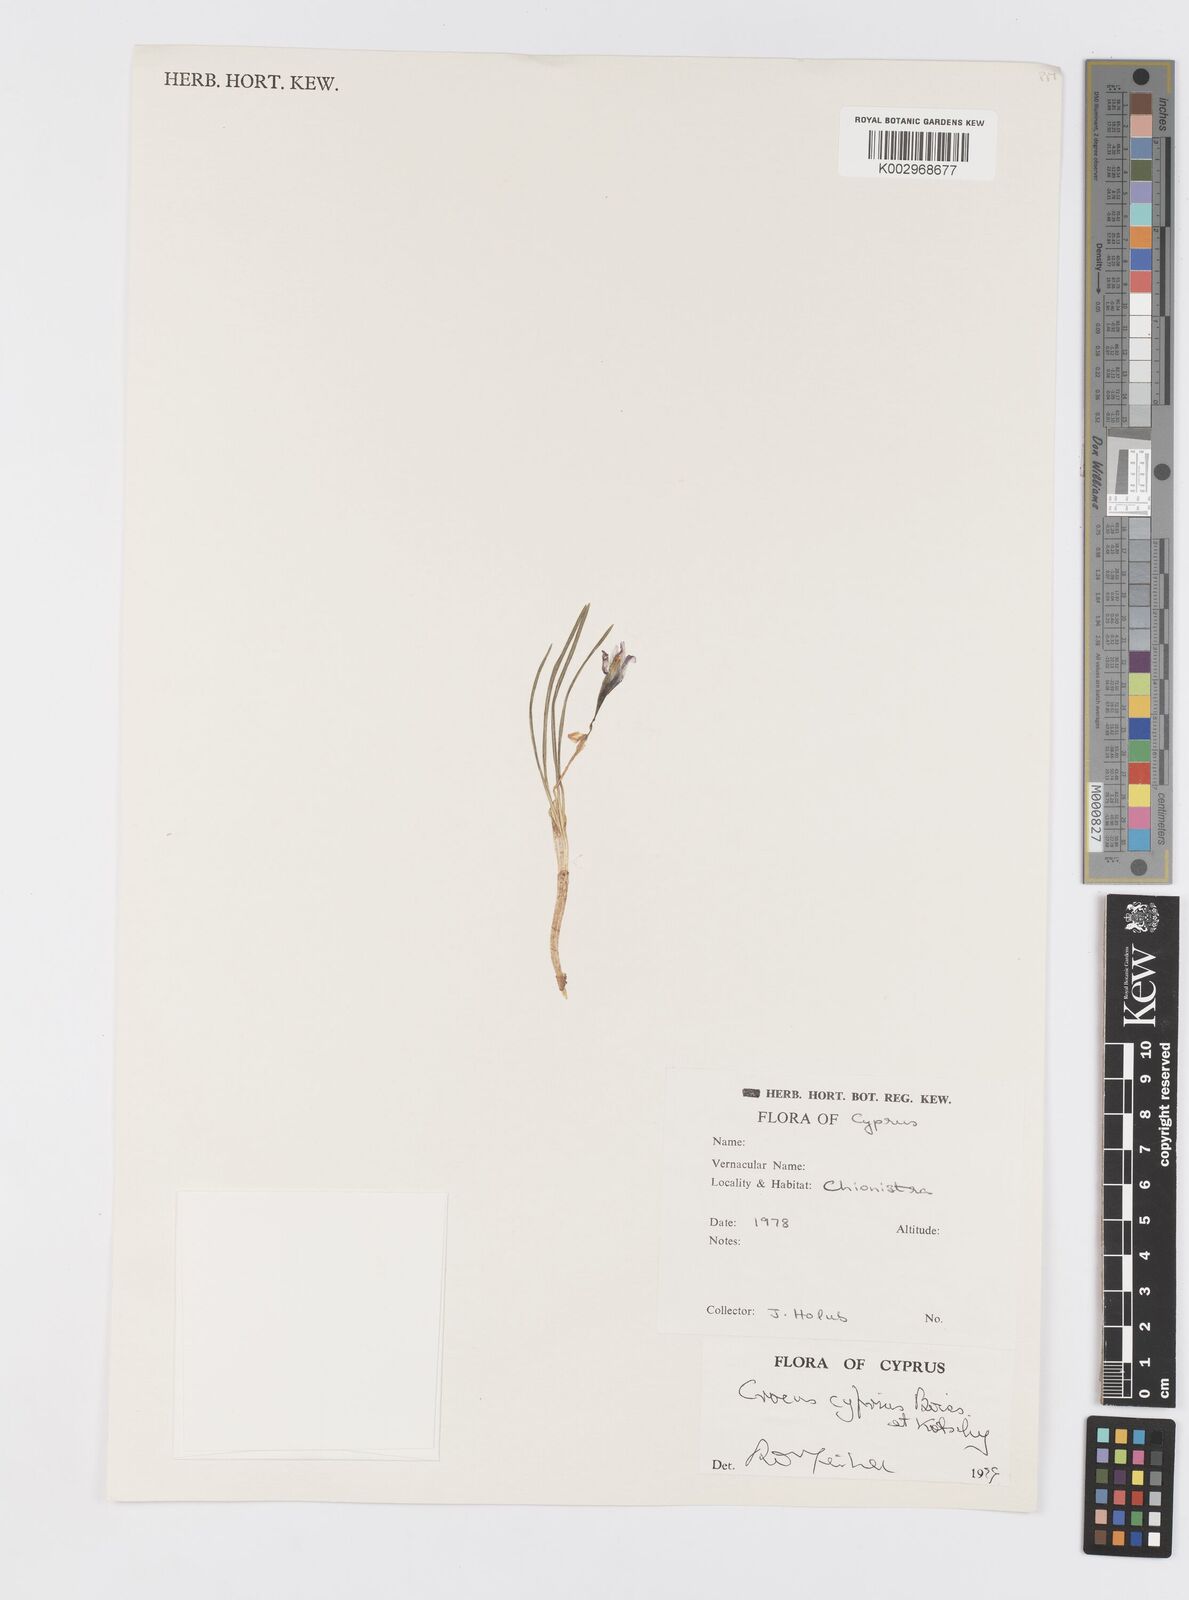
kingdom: Plantae
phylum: Tracheophyta
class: Liliopsida
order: Asparagales
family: Iridaceae
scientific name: Iridaceae
